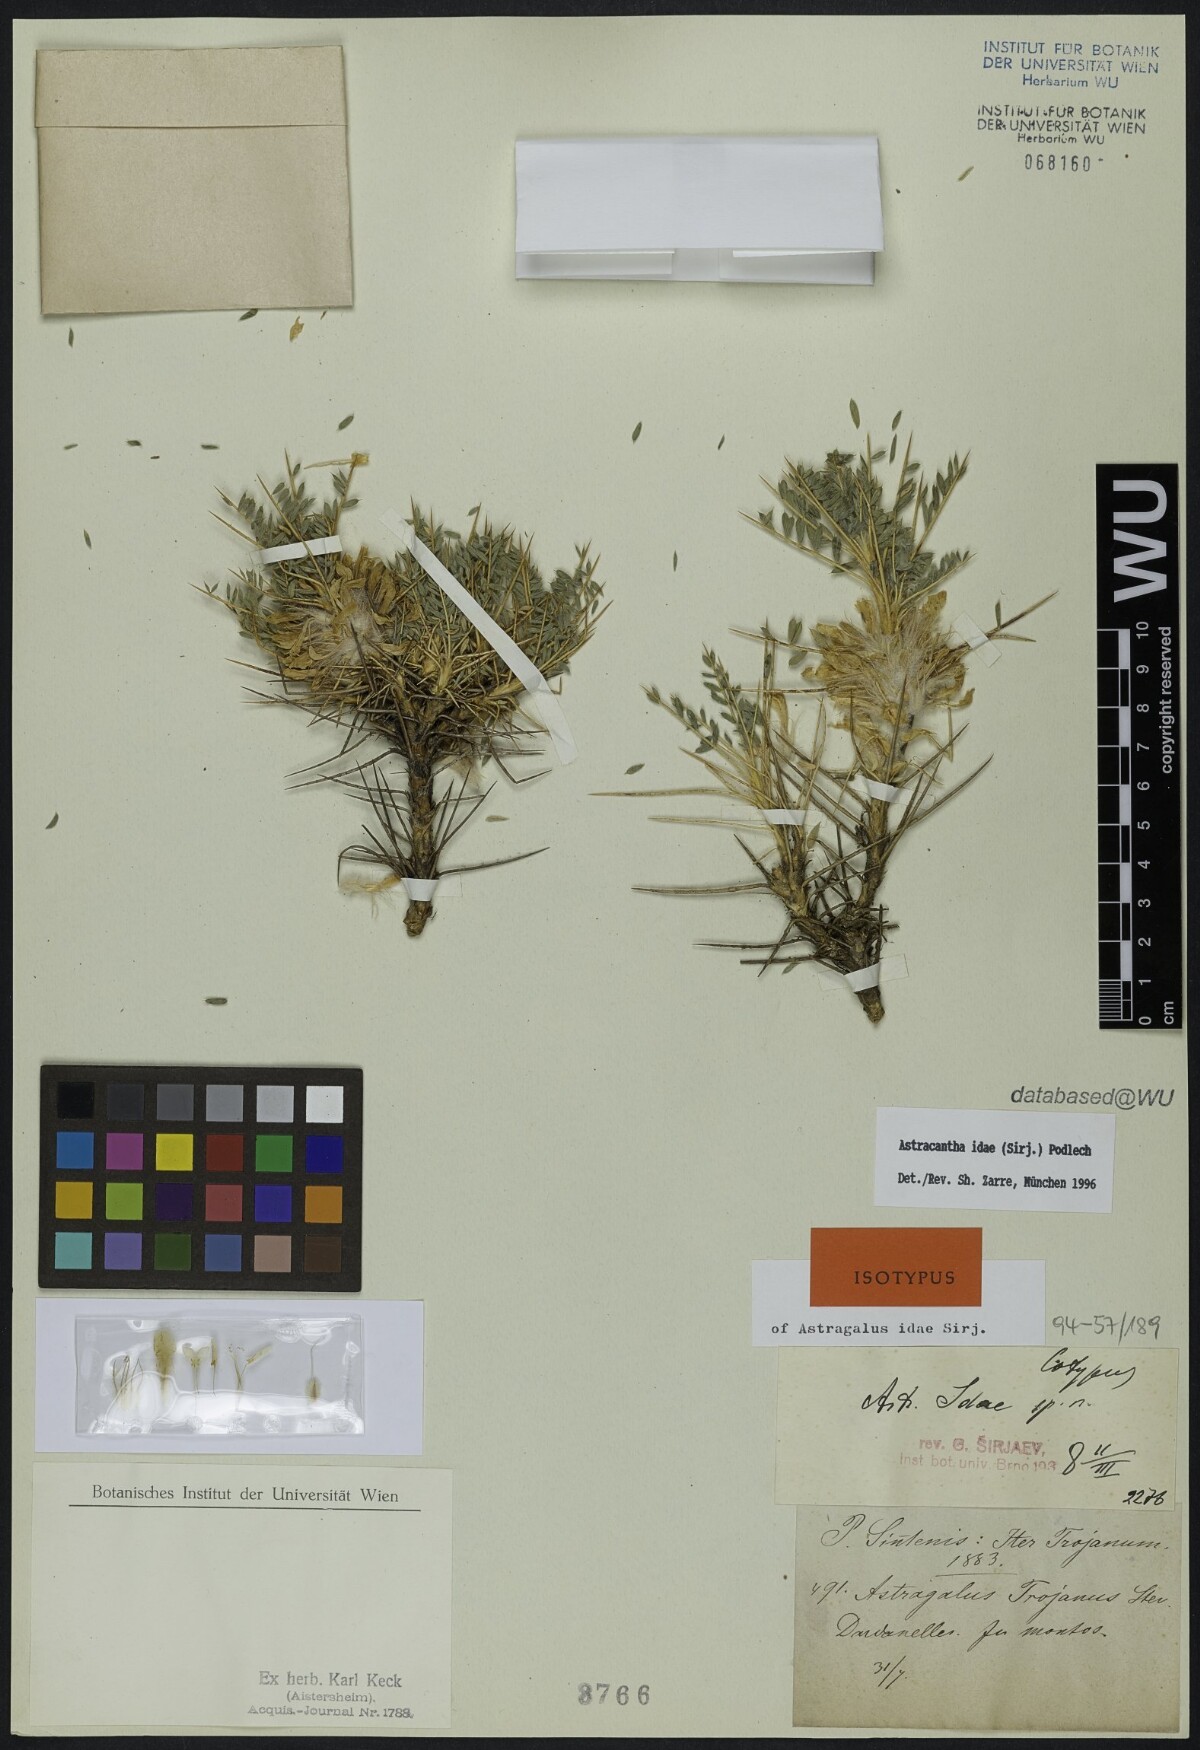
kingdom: Plantae
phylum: Tracheophyta
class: Magnoliopsida
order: Fabales
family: Fabaceae
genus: Astragalus
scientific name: Astragalus thracicus
